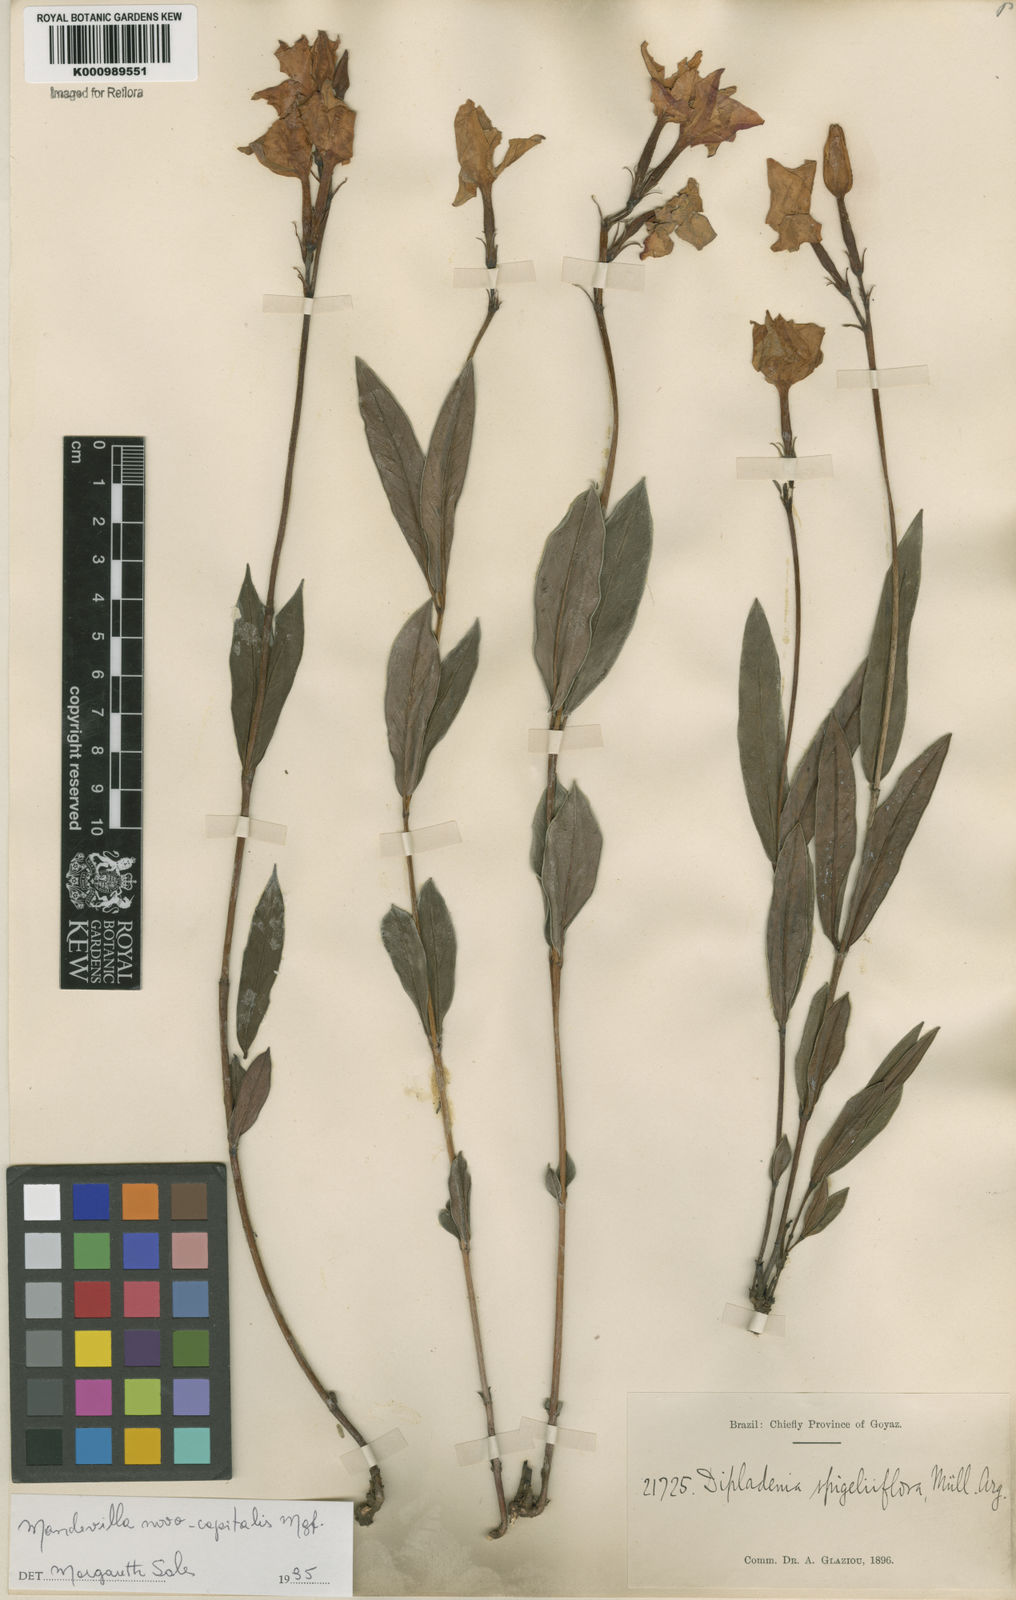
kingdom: Plantae
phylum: Tracheophyta
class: Magnoliopsida
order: Gentianales
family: Apocynaceae
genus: Mandevilla
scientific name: Mandevilla novocapitalis
